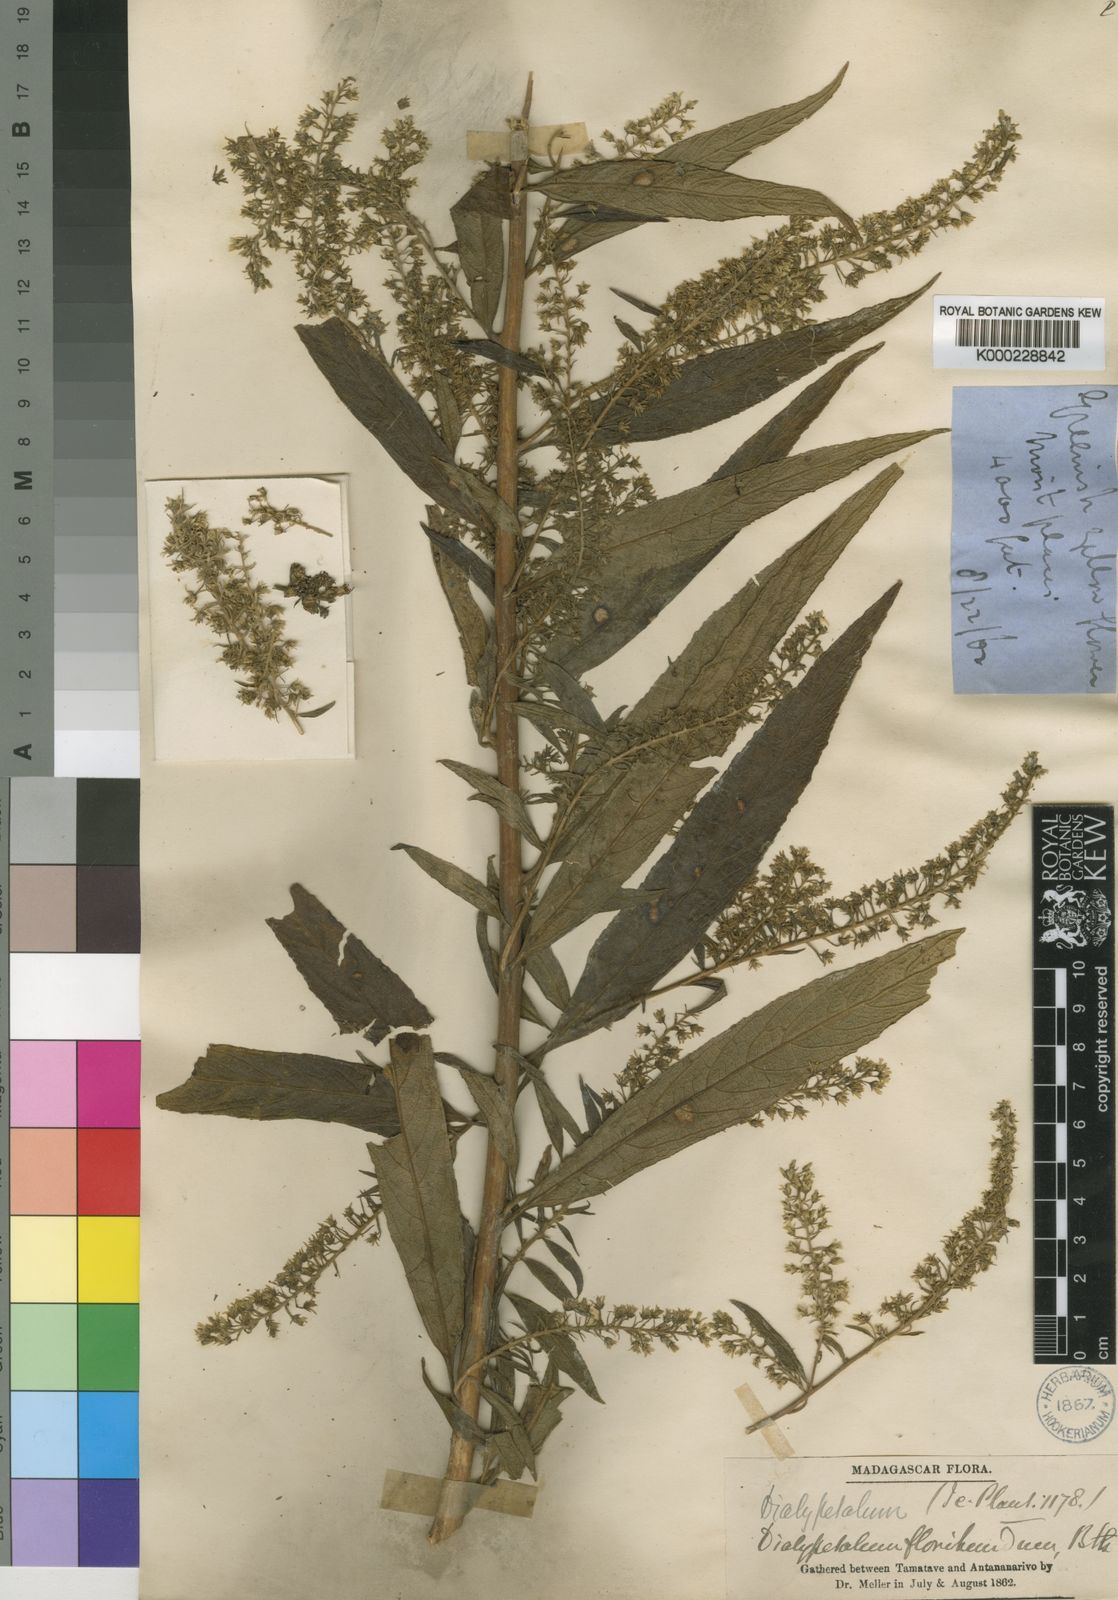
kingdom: Plantae
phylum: Tracheophyta
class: Magnoliopsida
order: Asterales
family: Campanulaceae
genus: Dialypetalum
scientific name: Dialypetalum floribundum
